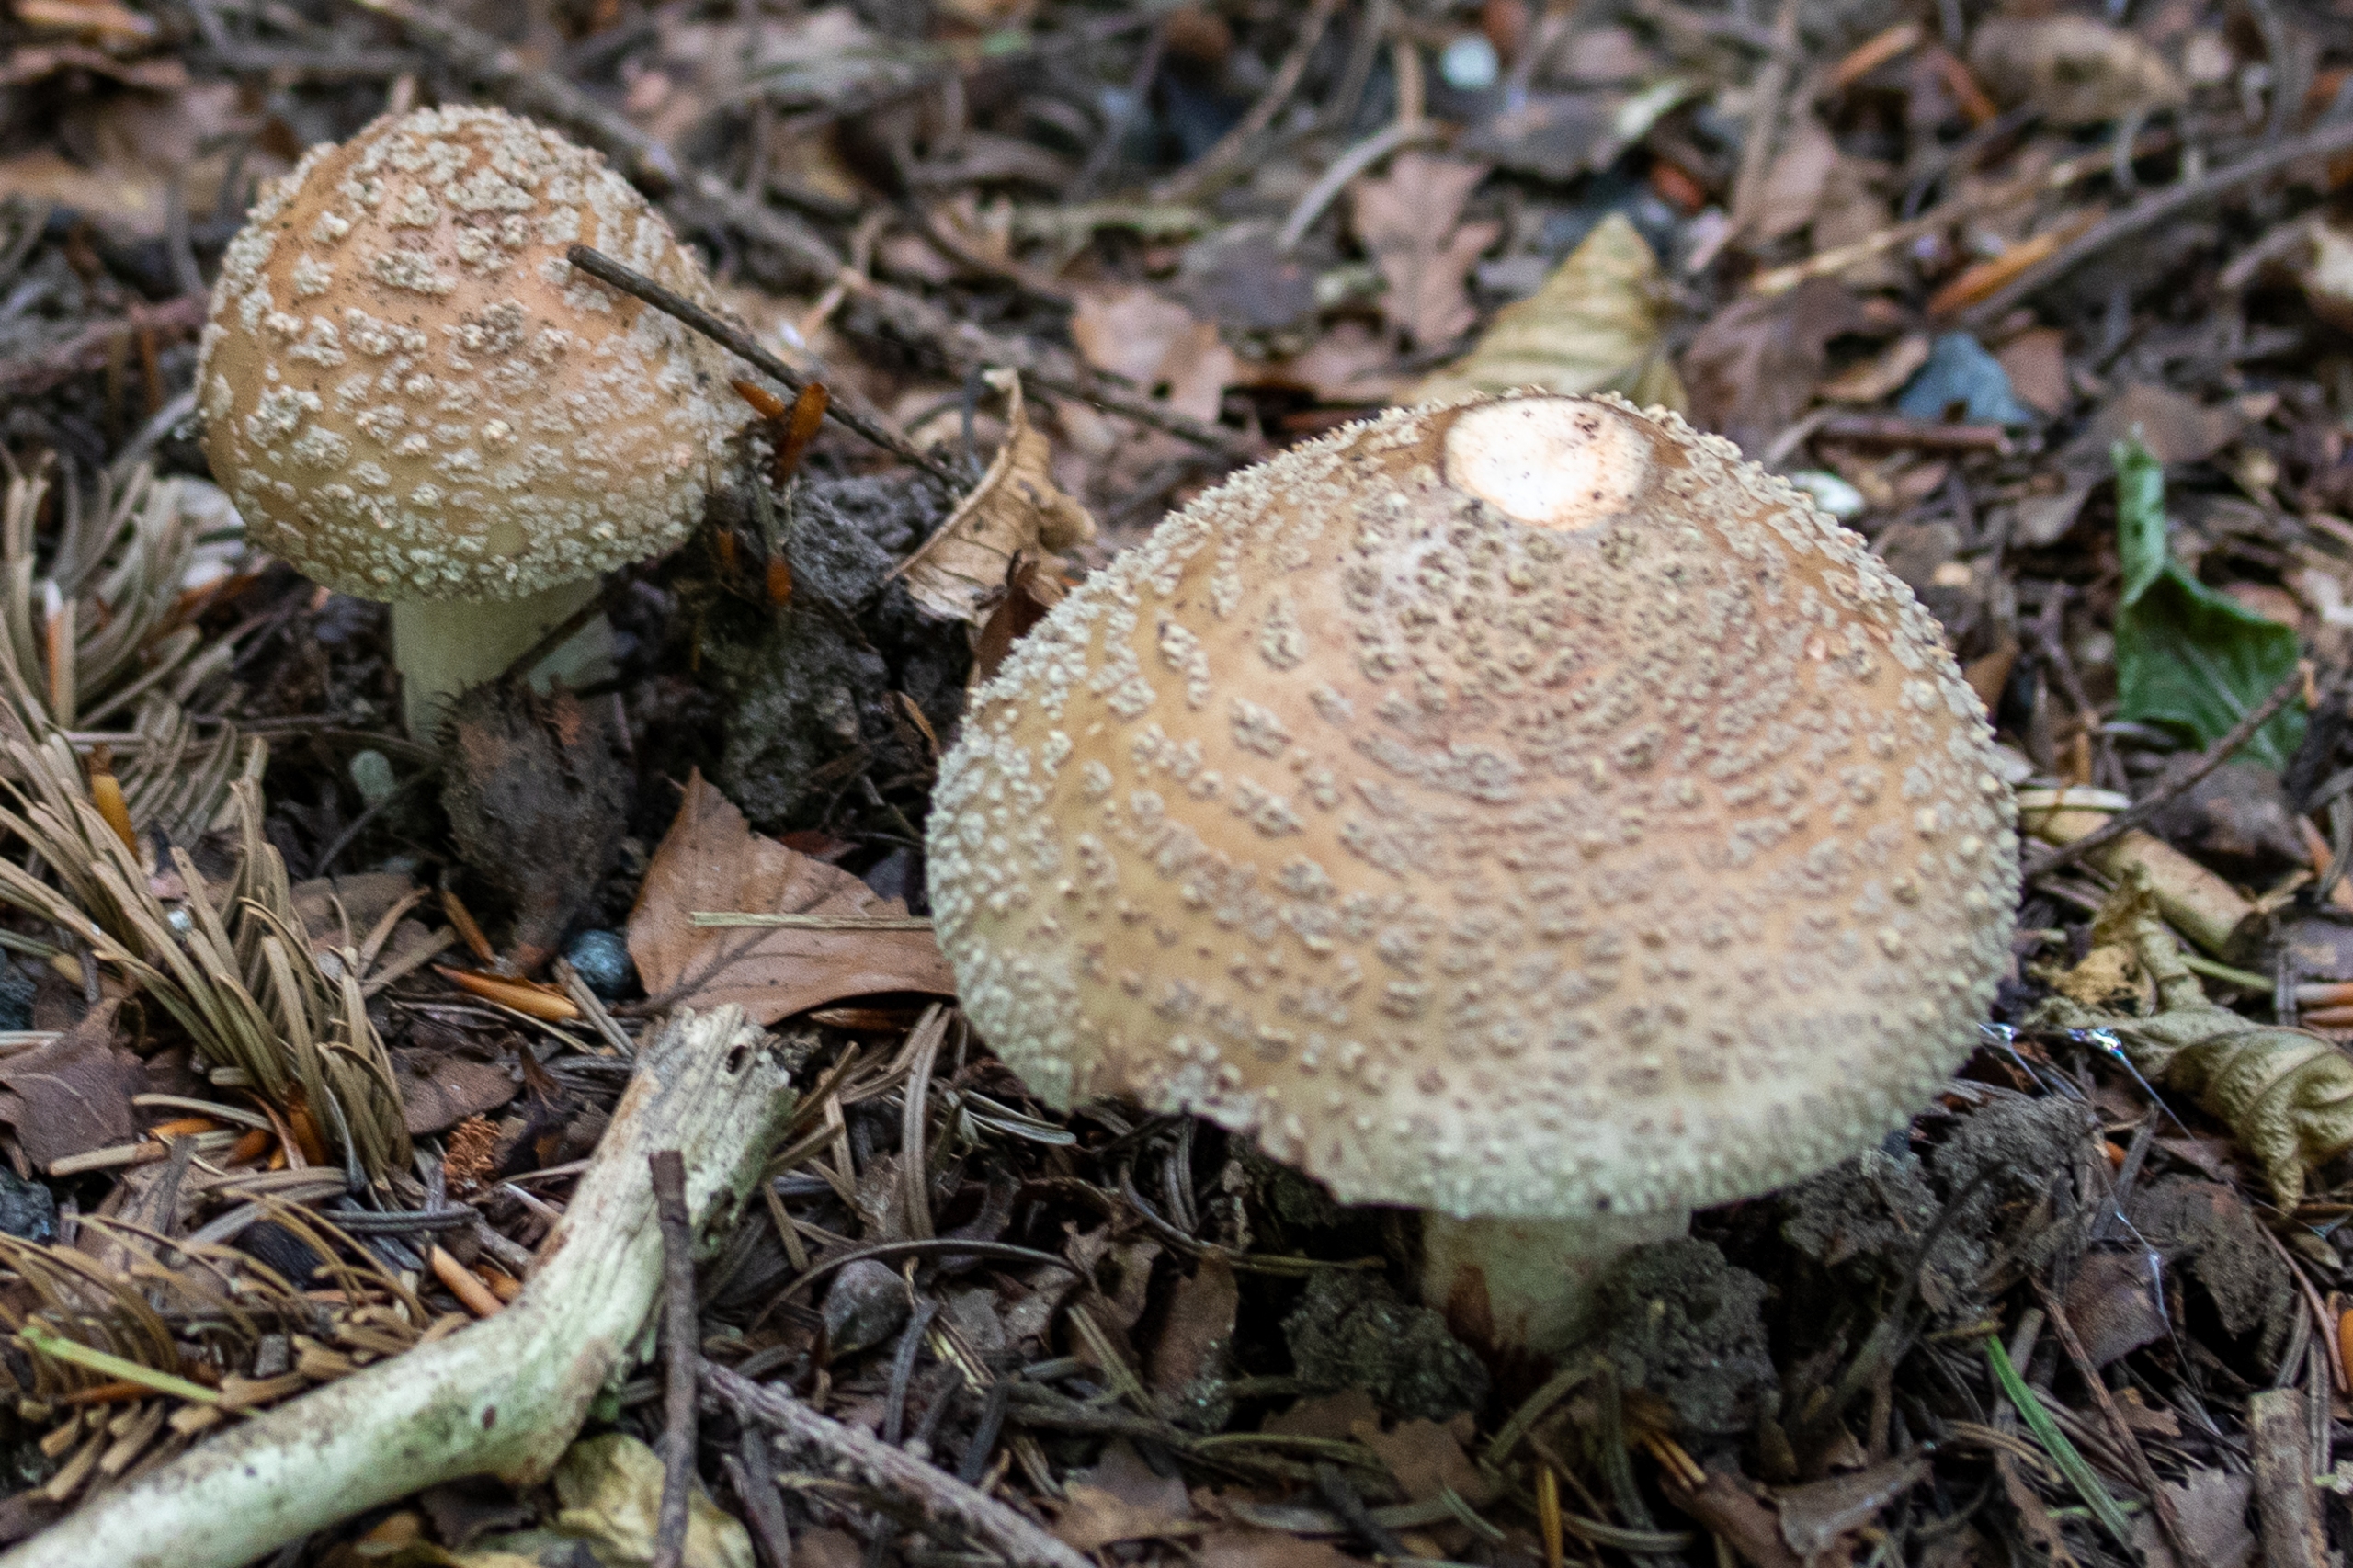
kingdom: Fungi
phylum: Basidiomycota
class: Agaricomycetes
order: Agaricales
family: Amanitaceae
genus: Amanita
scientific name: Amanita rubescens
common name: Rødmende fluesvamp
